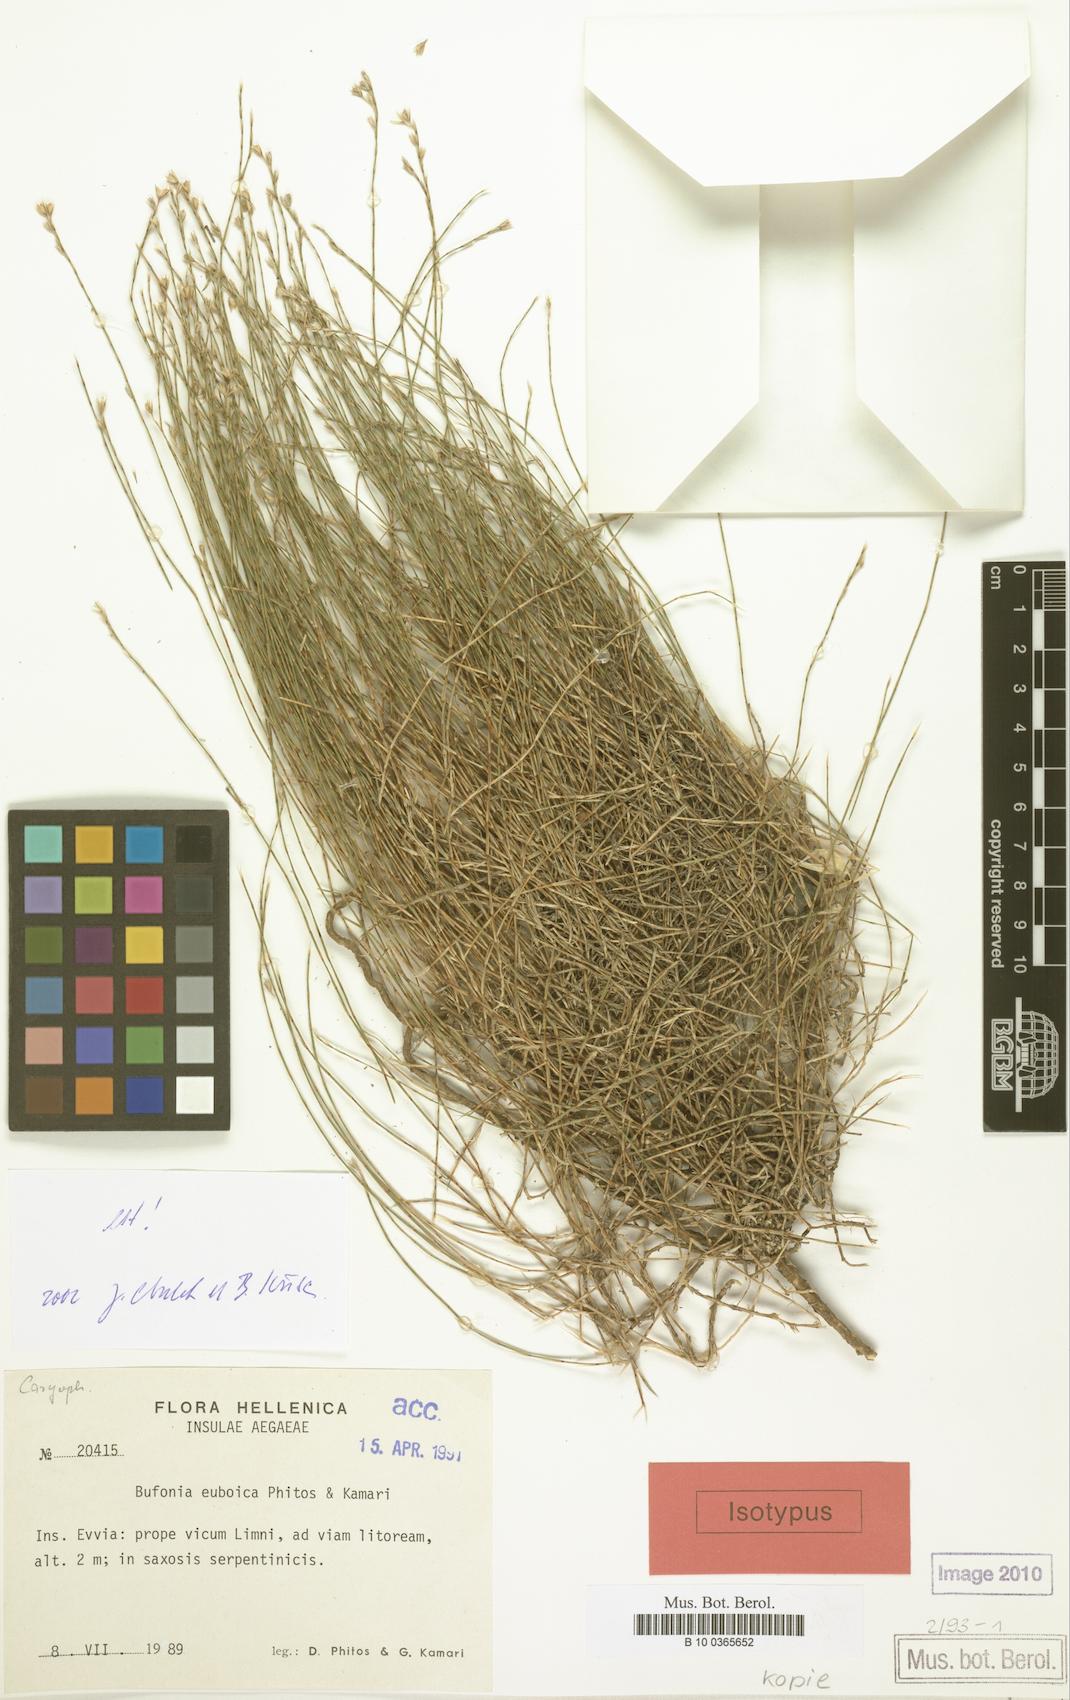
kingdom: Plantae
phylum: Tracheophyta
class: Magnoliopsida
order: Caryophyllales
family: Caryophyllaceae
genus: Bufonia
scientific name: Bufonia parviflora
